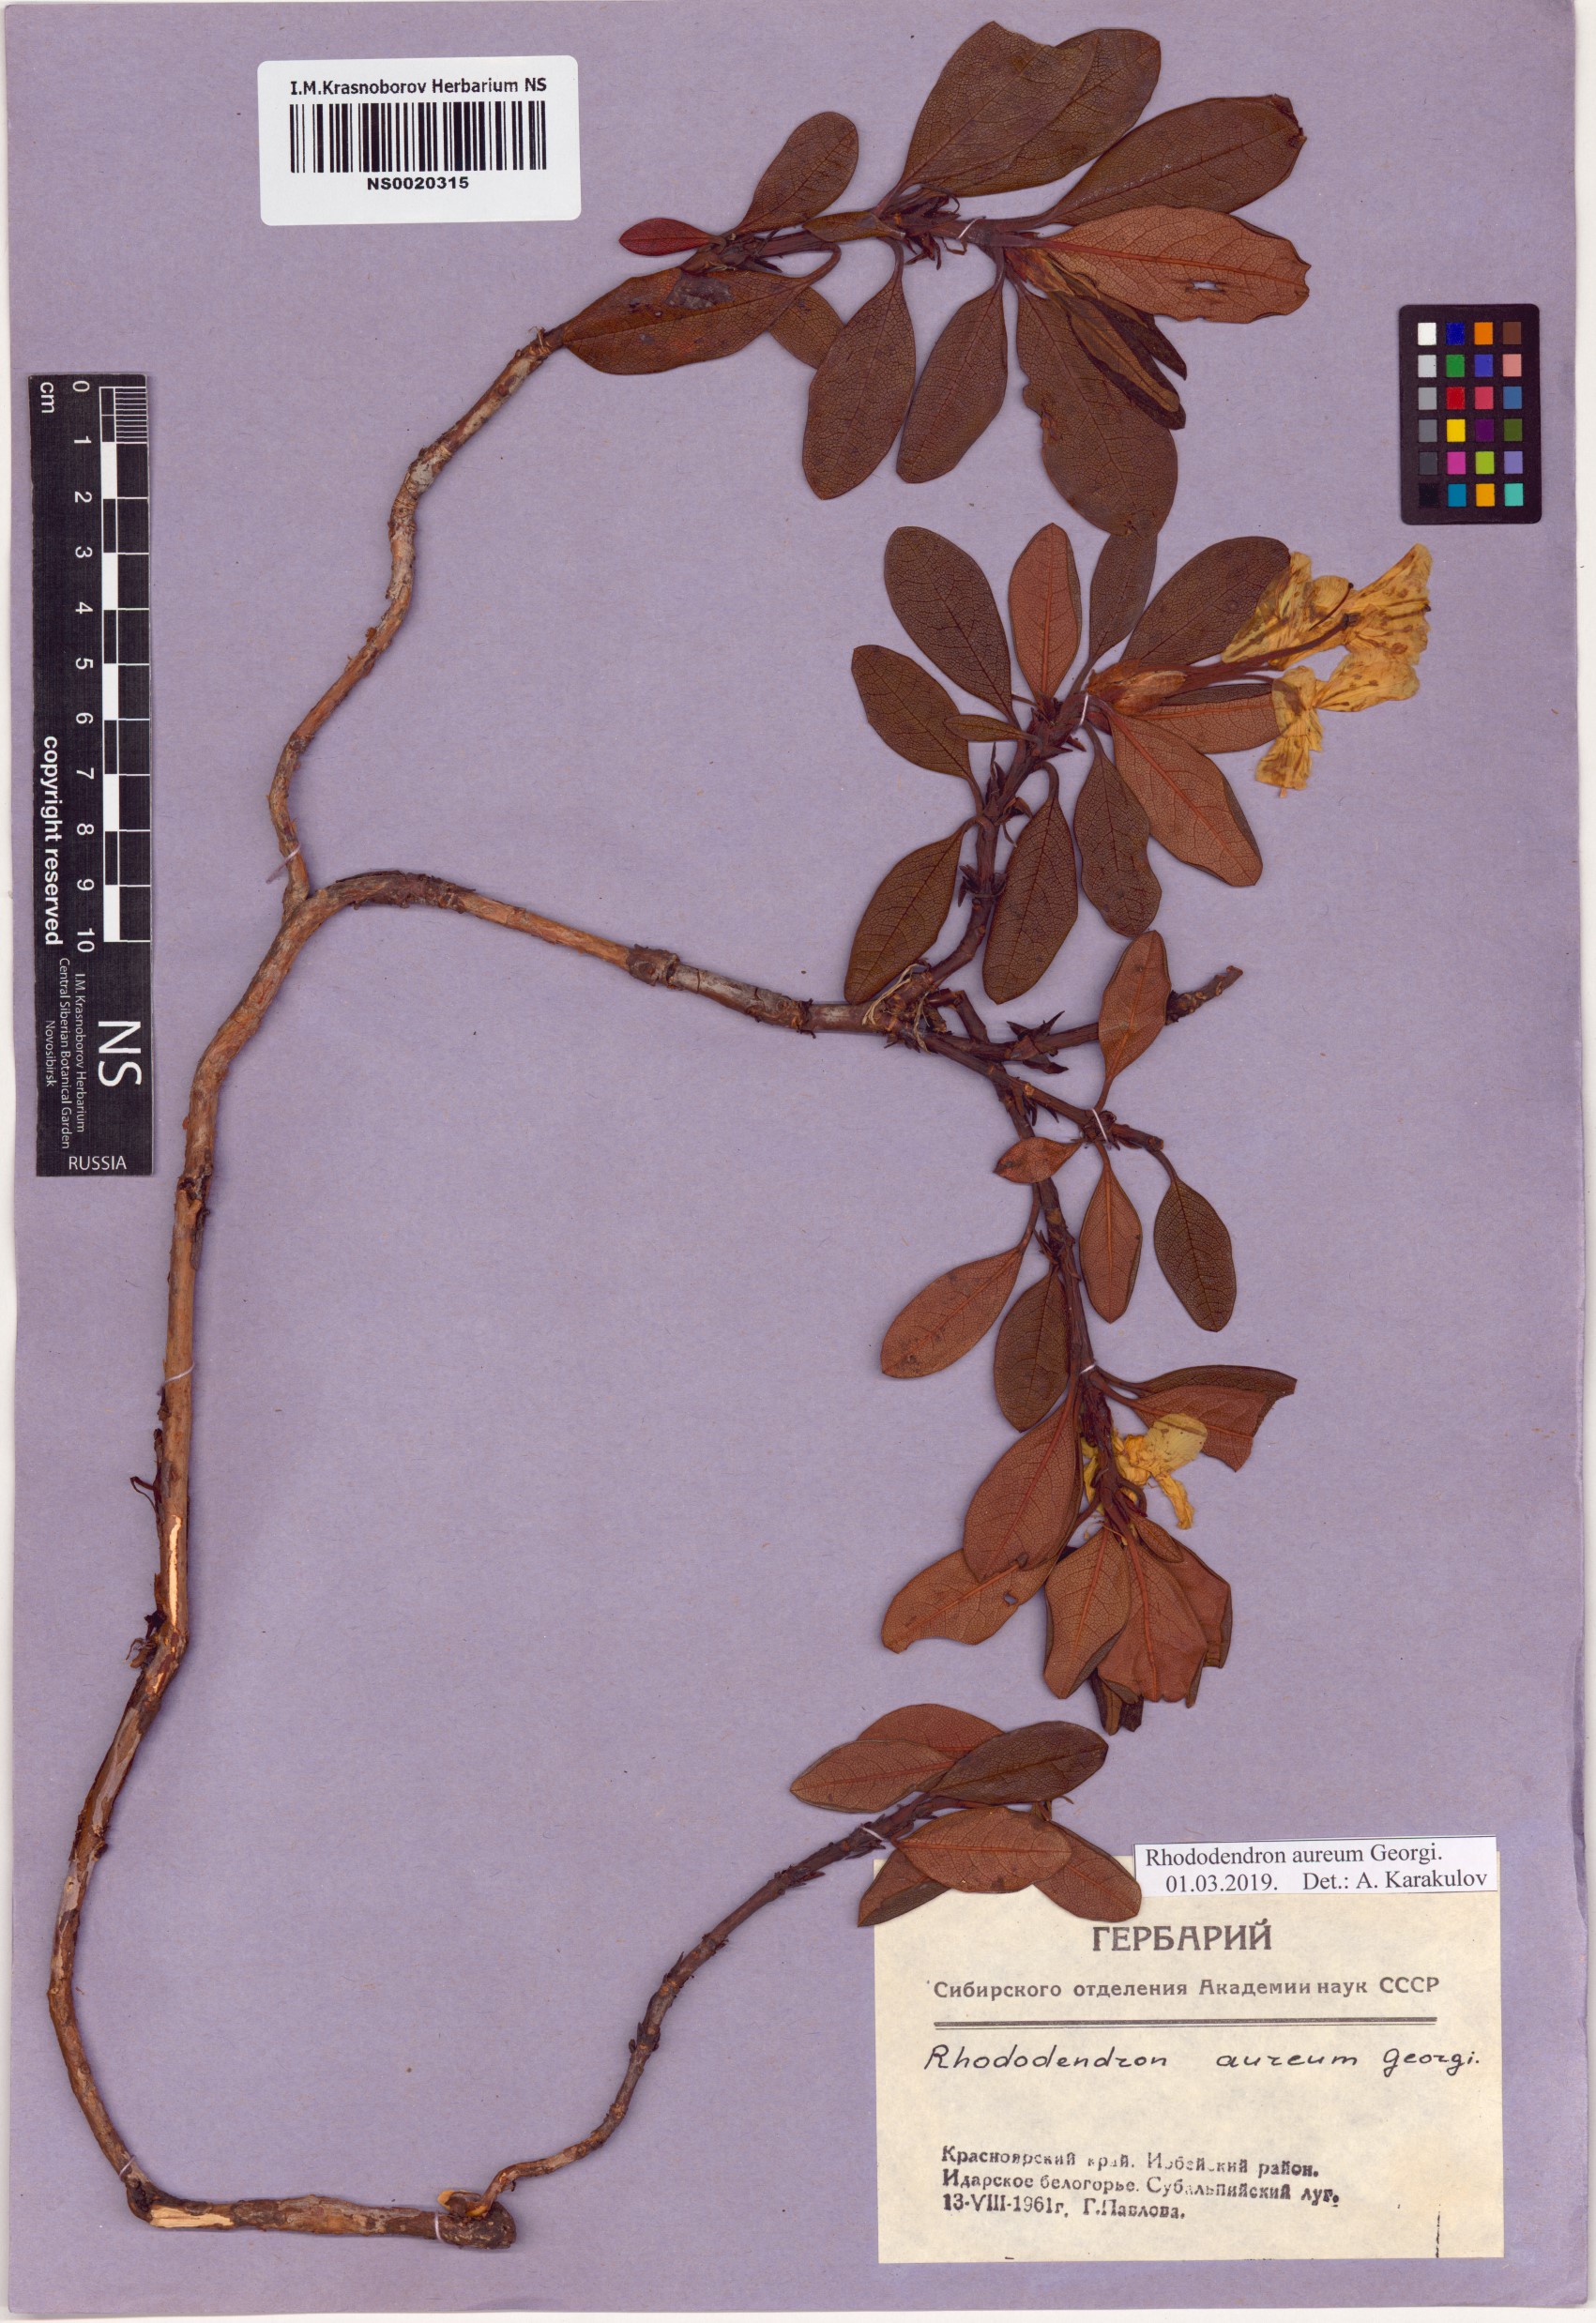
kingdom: Plantae
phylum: Tracheophyta
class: Magnoliopsida
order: Ericales
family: Ericaceae
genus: Rhododendron
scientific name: Rhododendron aureum
